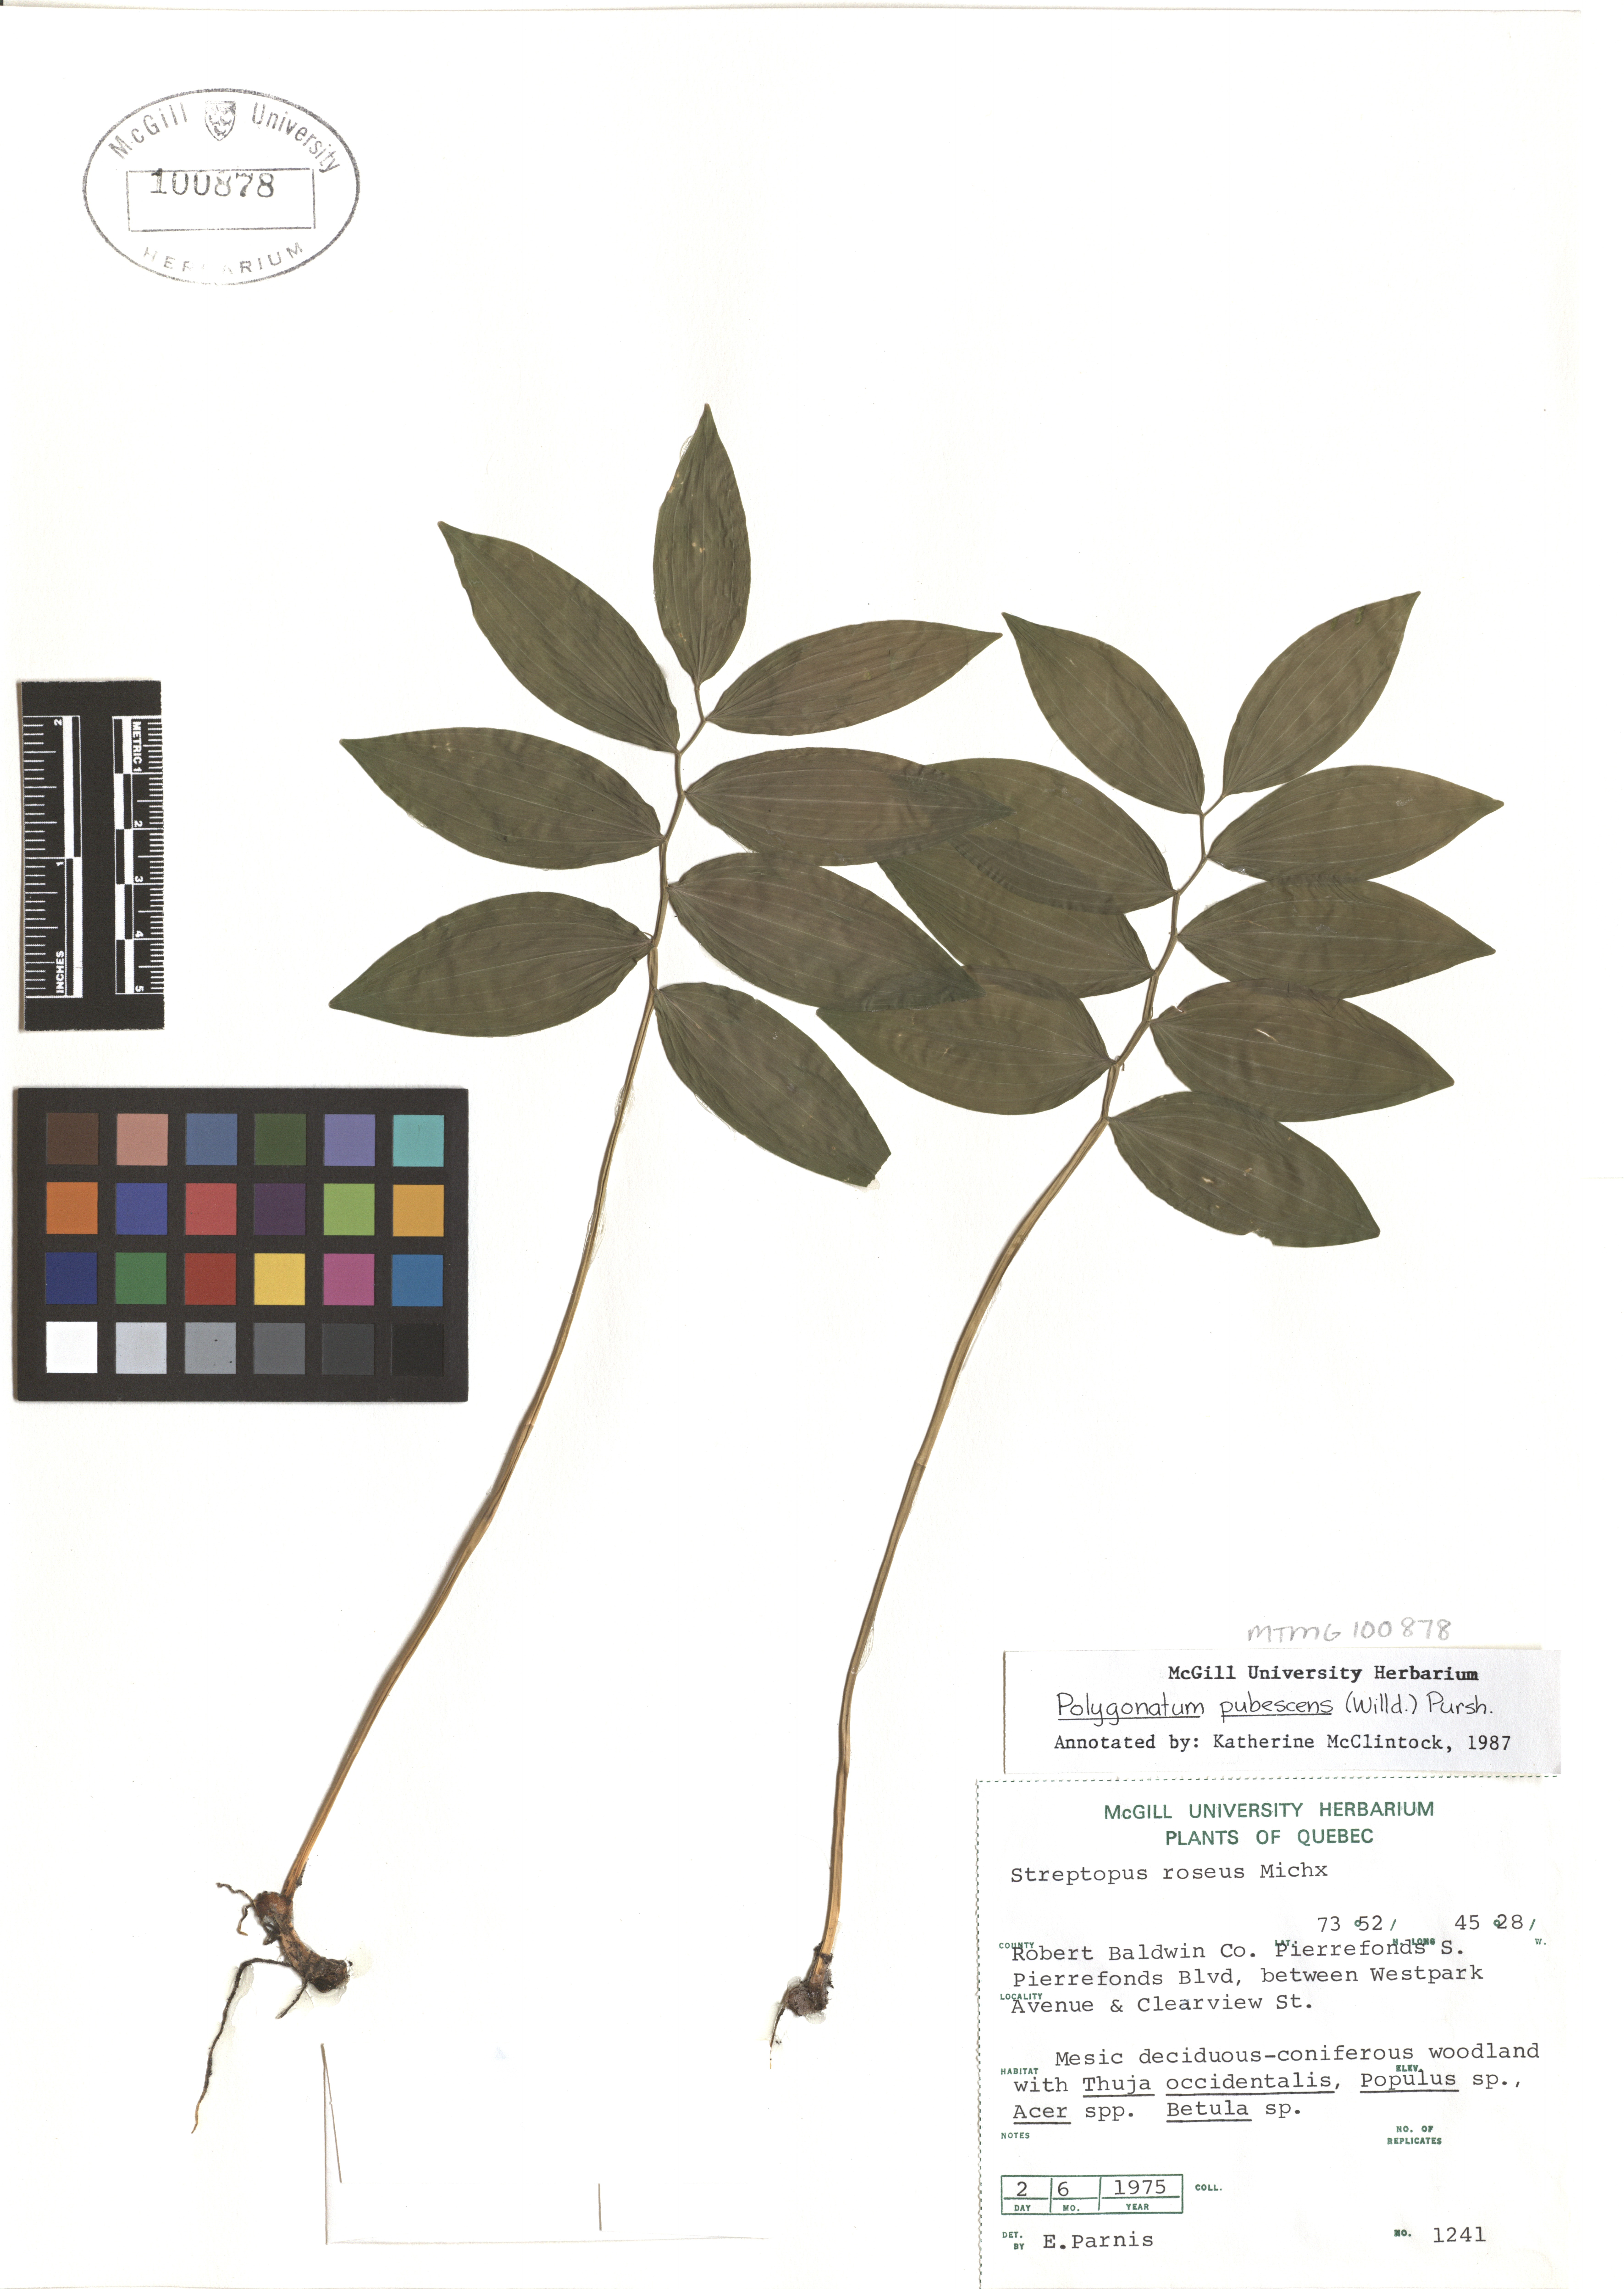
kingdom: Plantae
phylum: Tracheophyta
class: Liliopsida
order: Asparagales
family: Asparagaceae
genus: Polygonatum
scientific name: Polygonatum pubescens
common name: Downy solomon's seal
